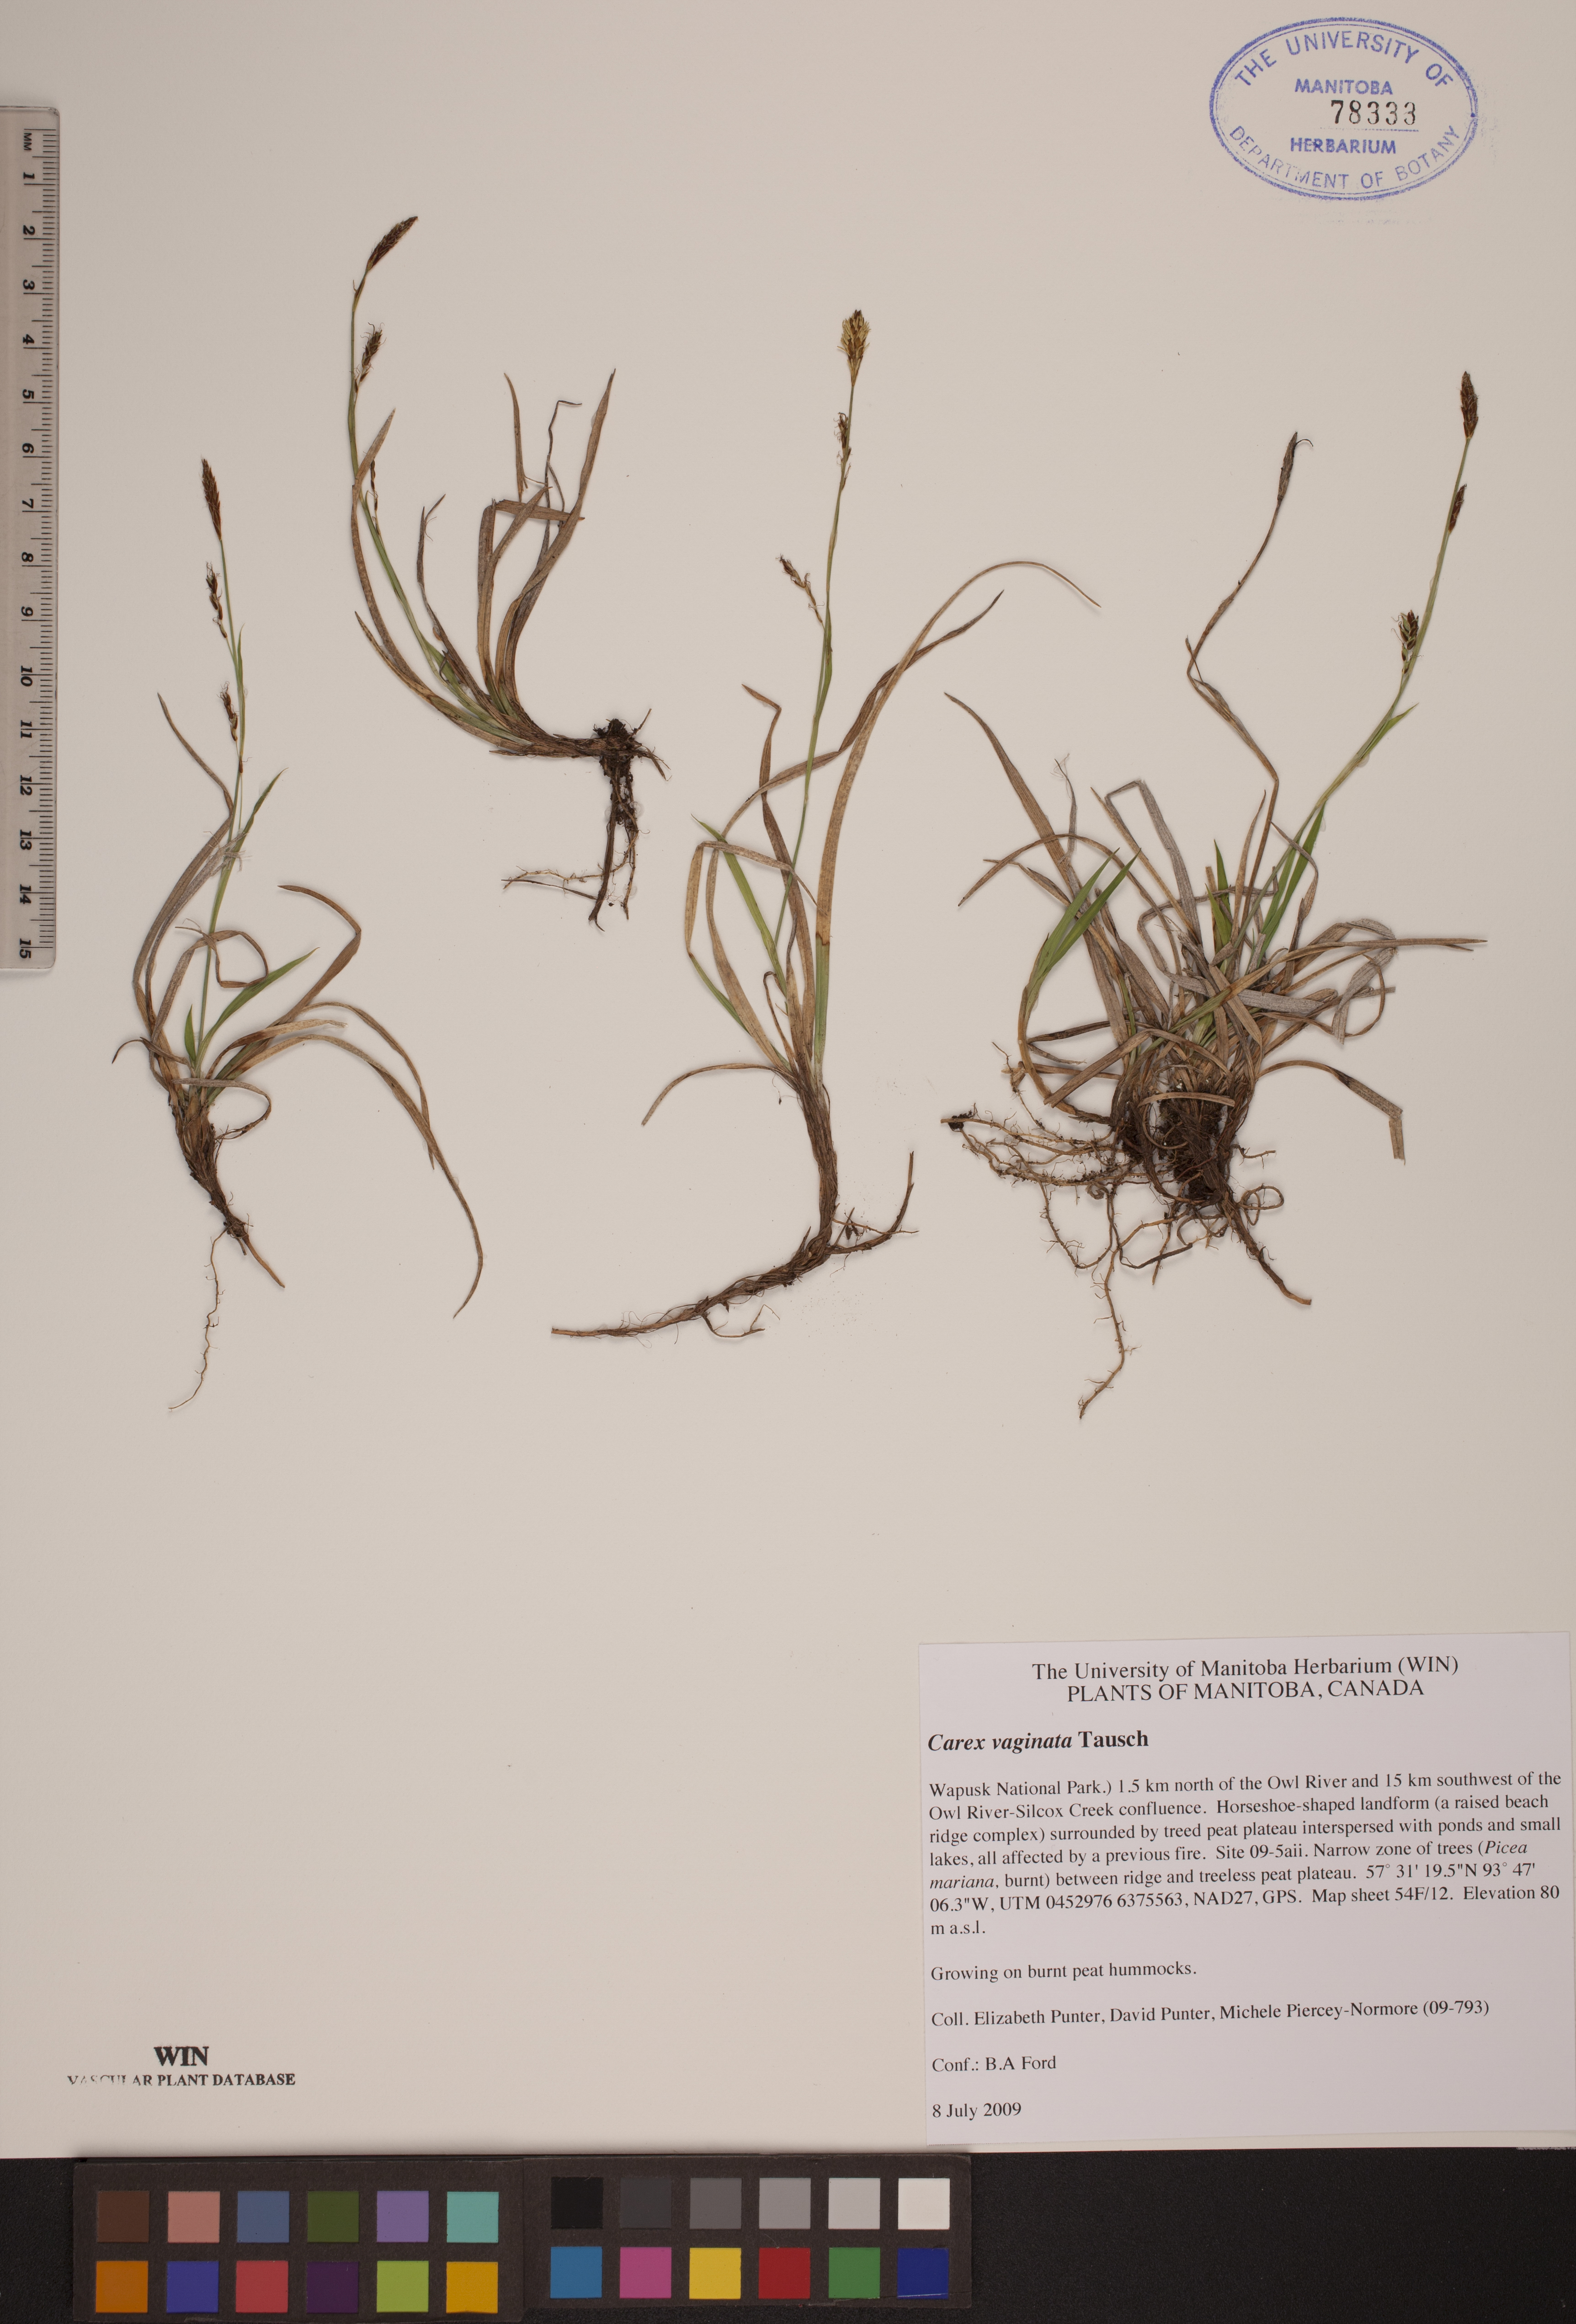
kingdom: Plantae
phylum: Tracheophyta
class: Liliopsida
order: Poales
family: Cyperaceae
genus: Carex
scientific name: Carex vaginata
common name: Sheathed sedge
